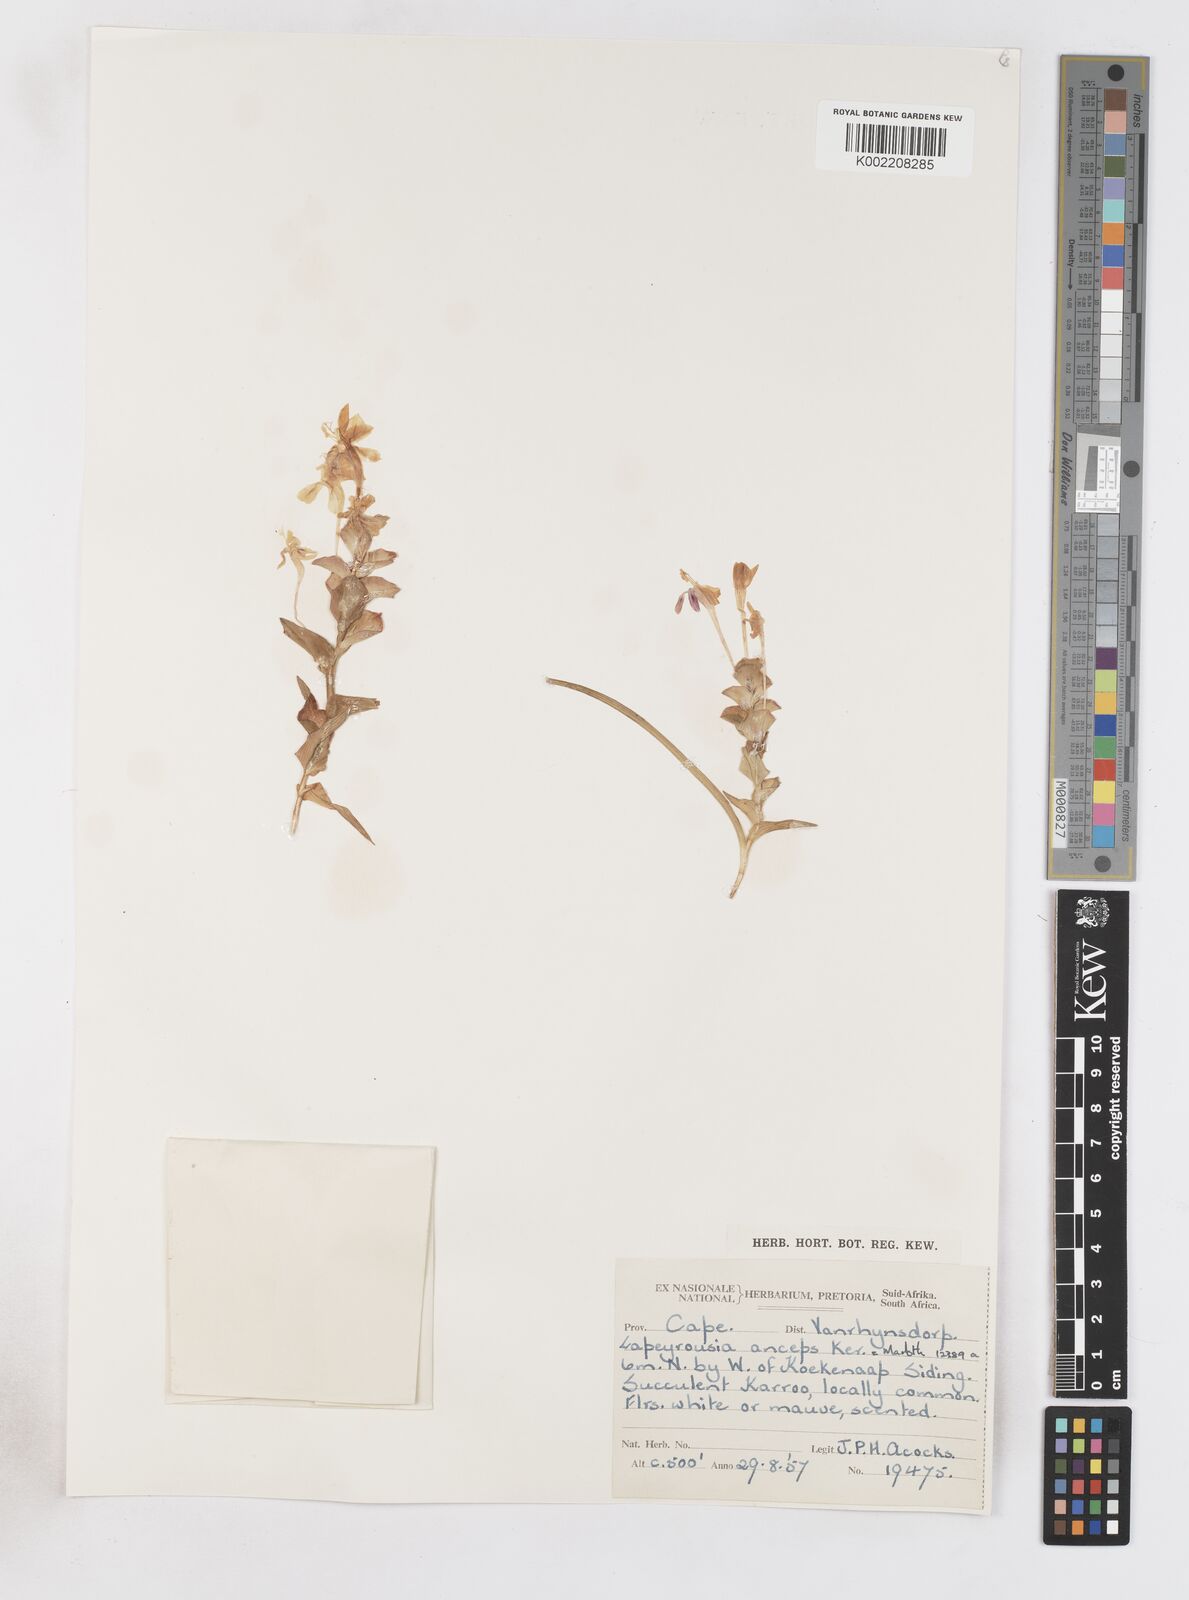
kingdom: Plantae
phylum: Tracheophyta
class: Liliopsida
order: Asparagales
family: Iridaceae
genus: Lapeirousia
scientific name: Lapeirousia pyramidalis
